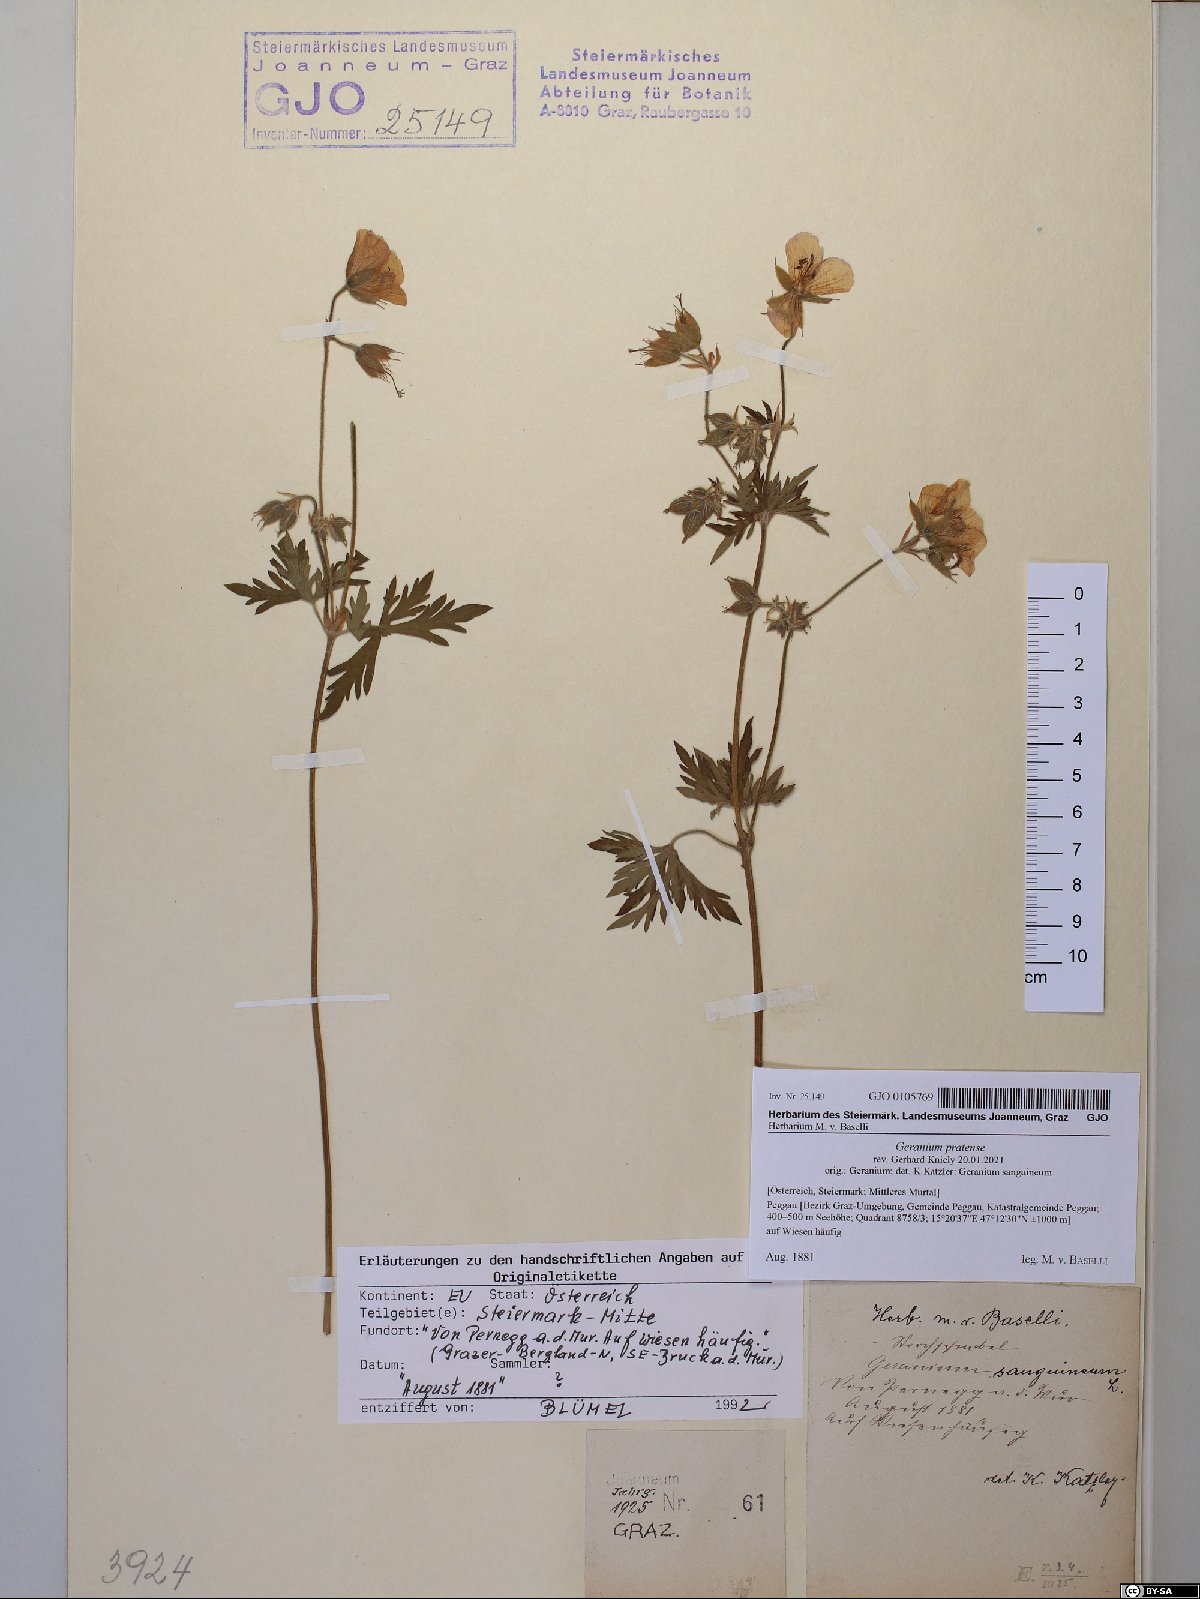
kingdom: Plantae
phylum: Tracheophyta
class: Magnoliopsida
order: Geraniales
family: Geraniaceae
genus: Geranium
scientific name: Geranium pratense
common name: Meadow crane's-bill
